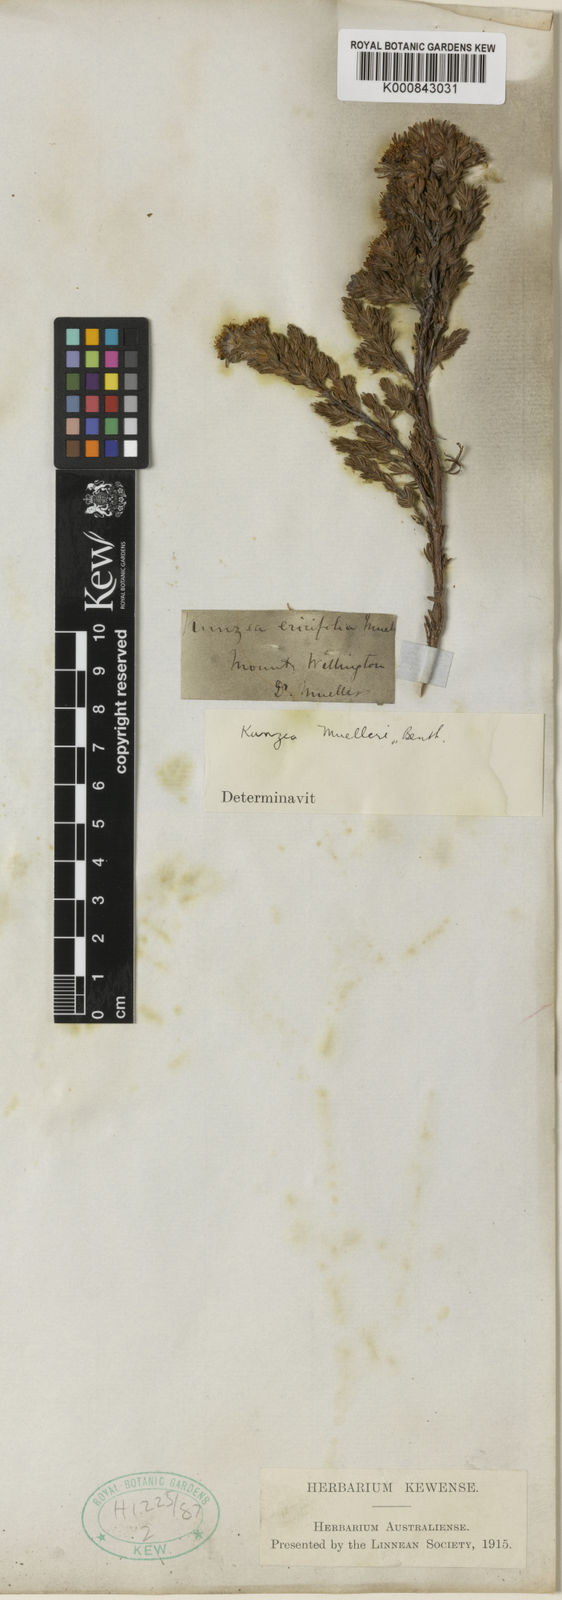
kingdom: Plantae
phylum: Tracheophyta
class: Magnoliopsida
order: Myrtales
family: Myrtaceae
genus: Kunzea
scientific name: Kunzea muelleri
